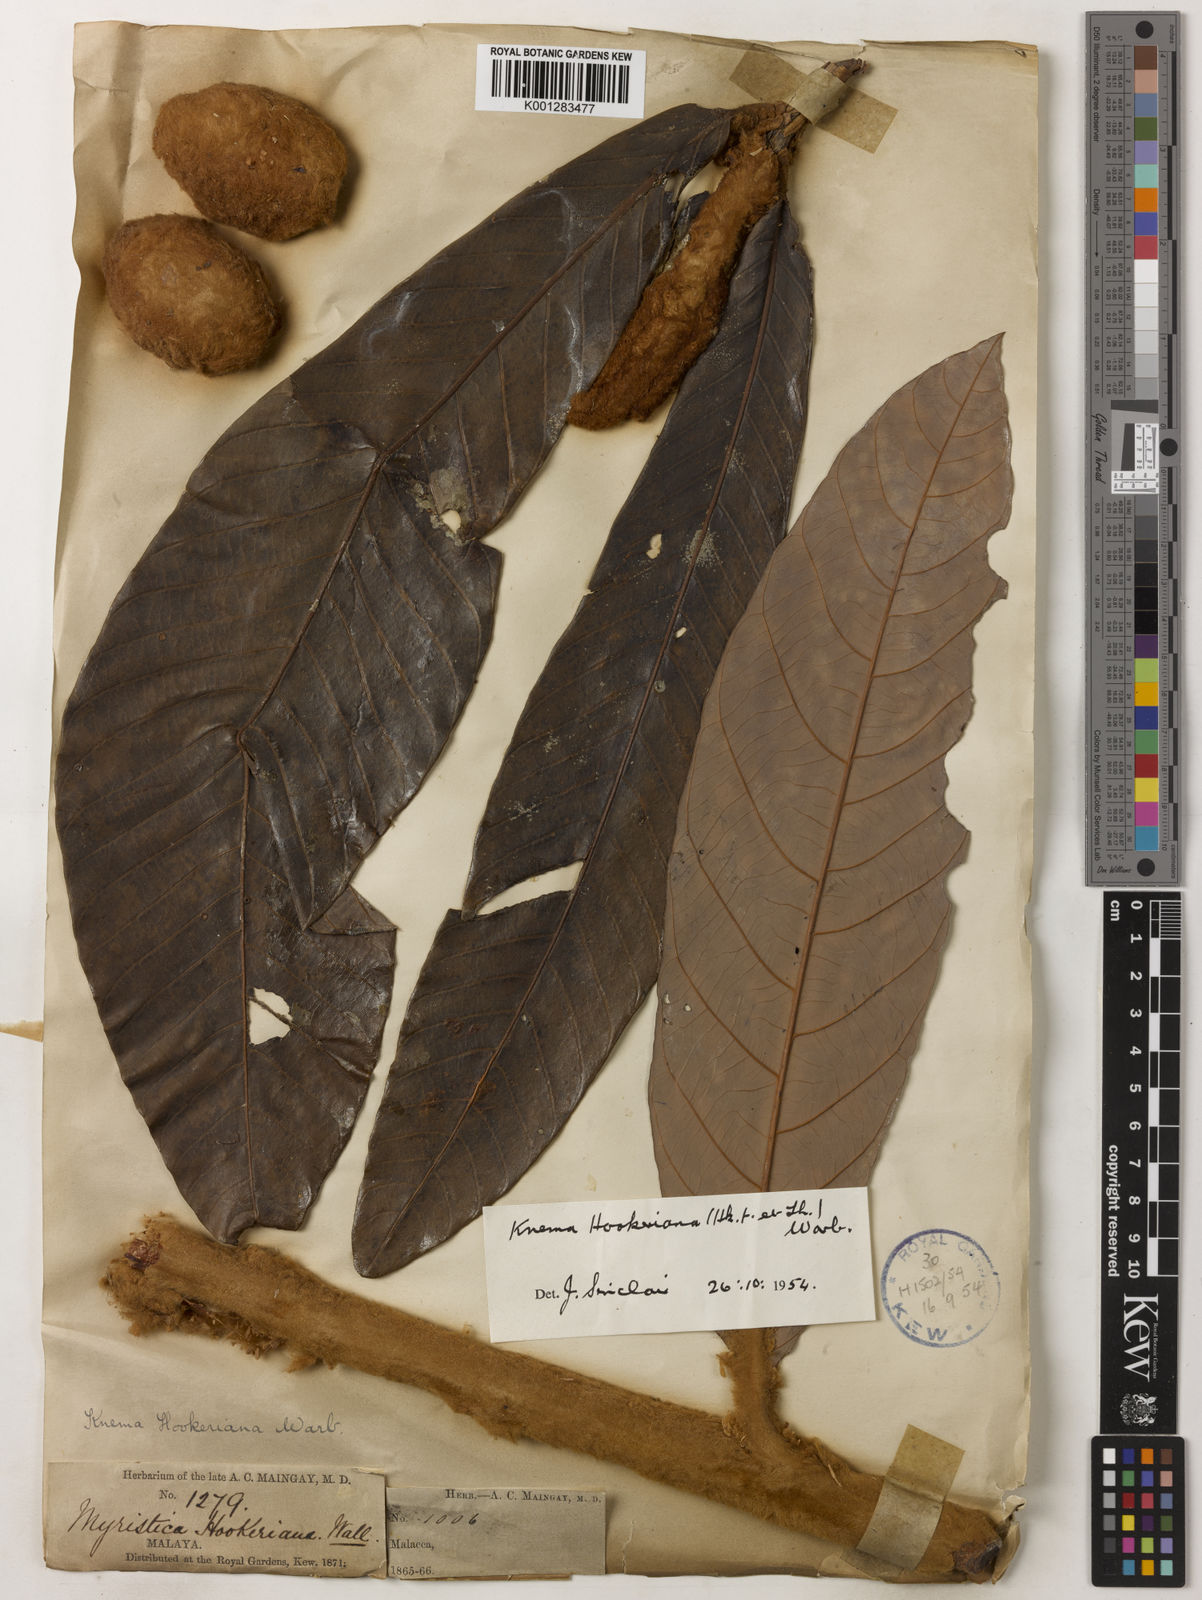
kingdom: Plantae
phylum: Tracheophyta
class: Magnoliopsida
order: Magnoliales
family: Myristicaceae
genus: Knema
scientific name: Knema hookeriana
